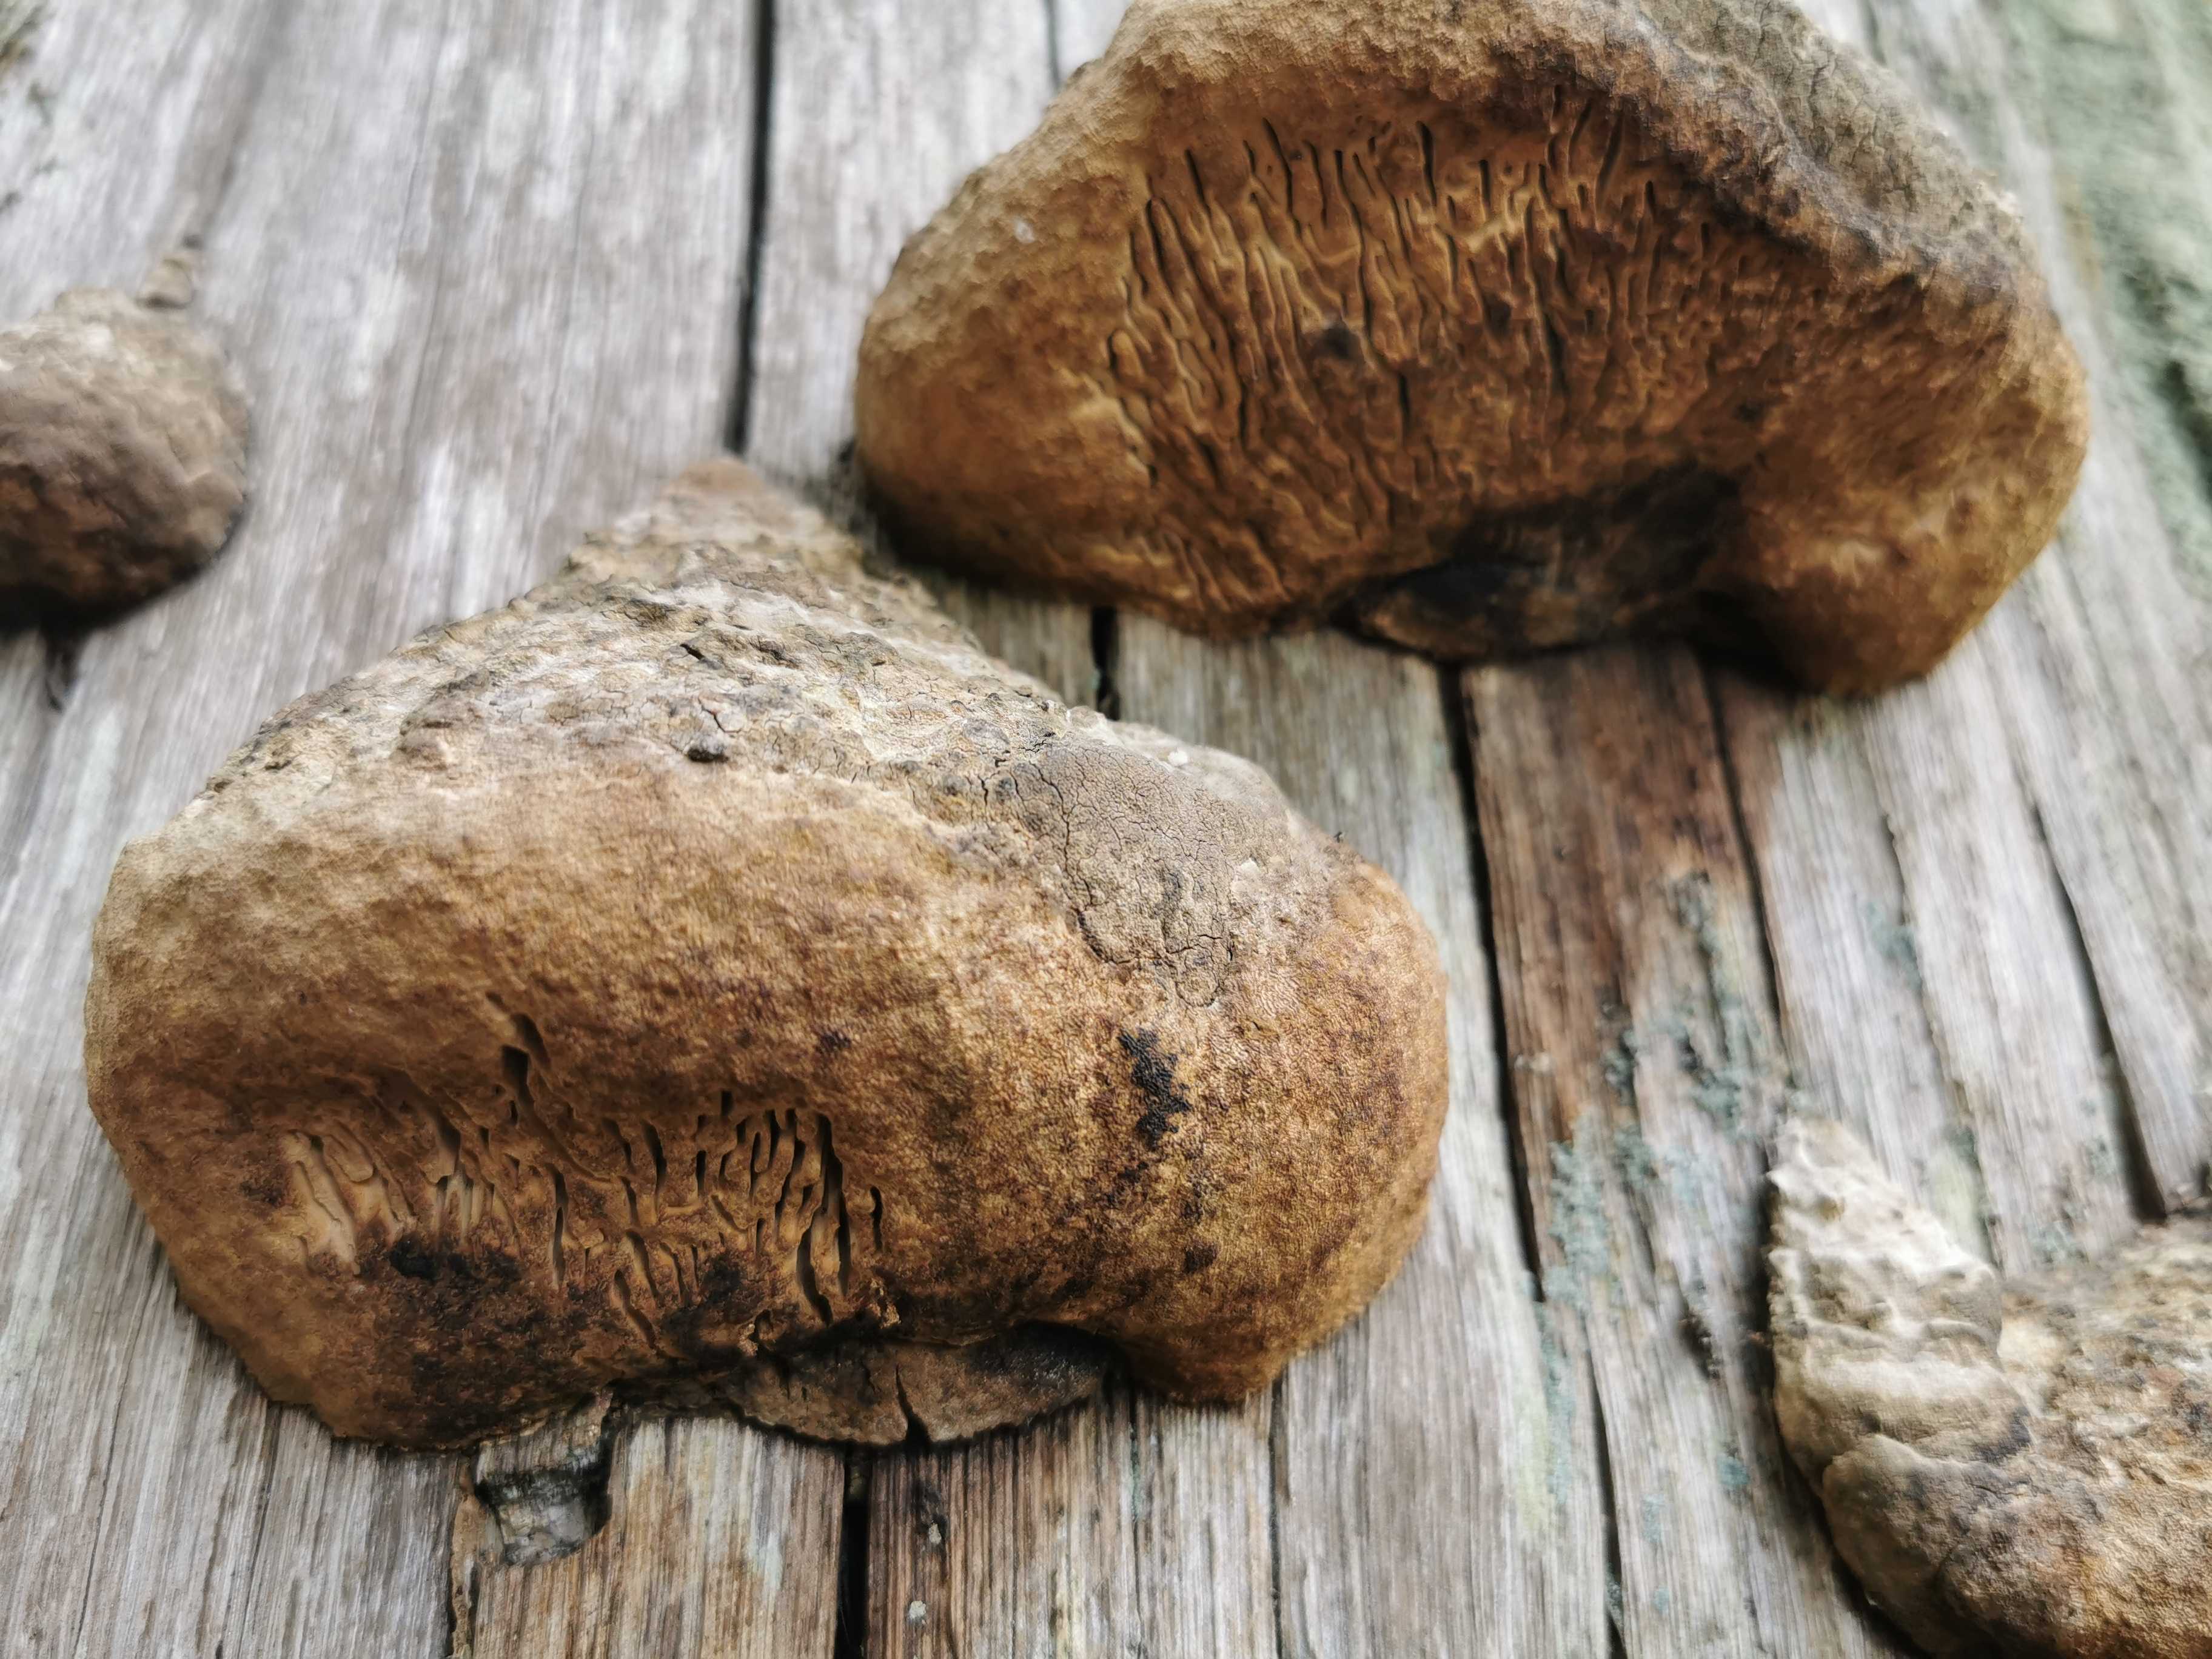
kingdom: Fungi
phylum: Basidiomycota
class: Agaricomycetes
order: Polyporales
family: Fomitopsidaceae
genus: Daedalea
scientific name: Daedalea quercina
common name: ege-labyrintsvamp
